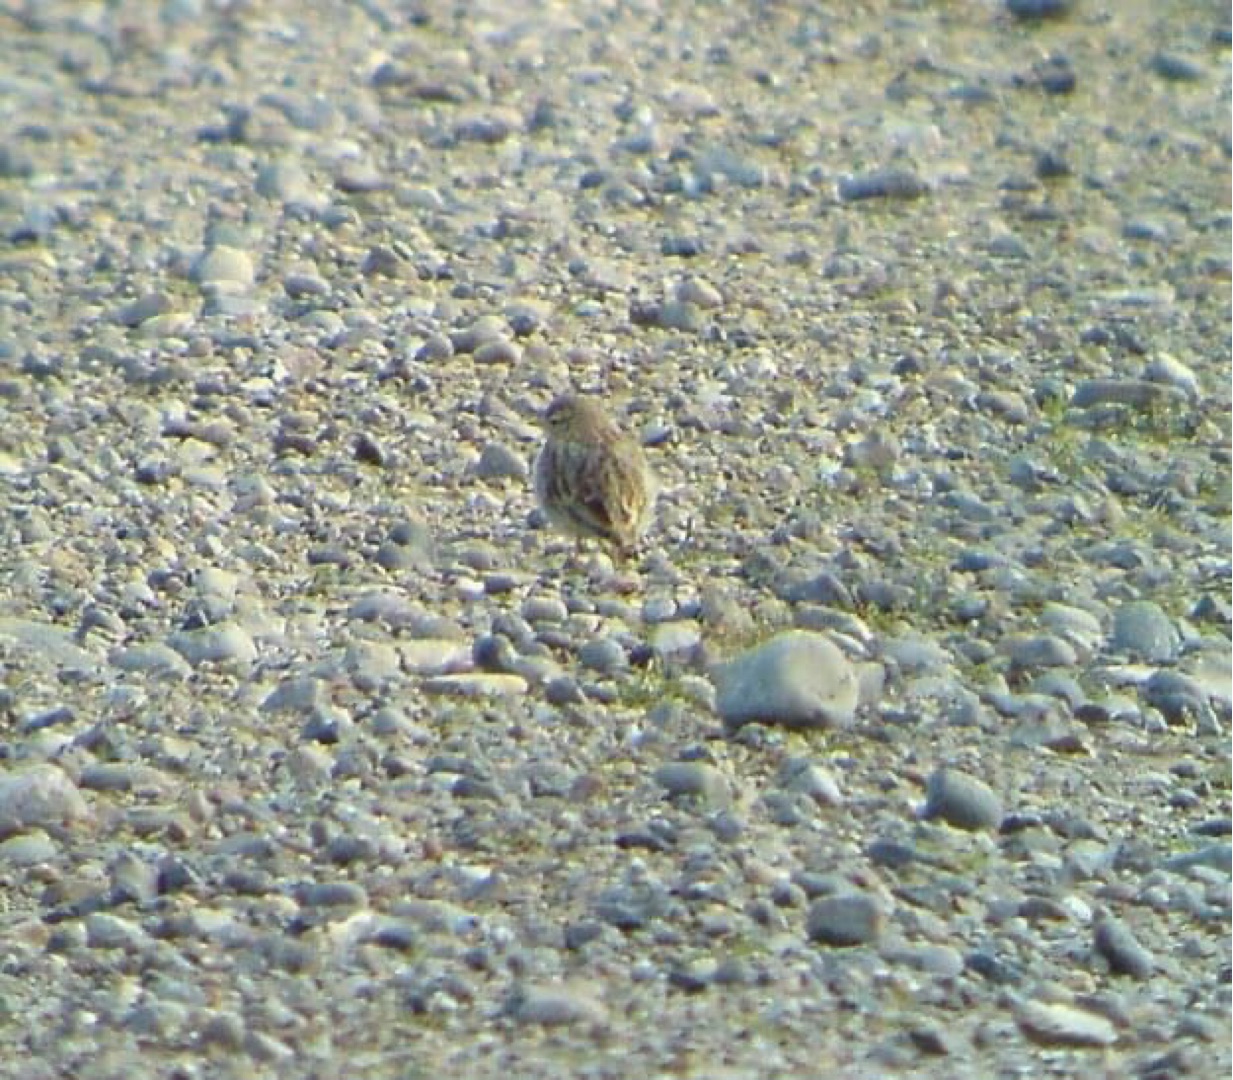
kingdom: Animalia
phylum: Chordata
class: Aves
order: Passeriformes
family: Alaudidae
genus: Calandrella
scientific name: Calandrella brachydactyla
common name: Korttået lærke
